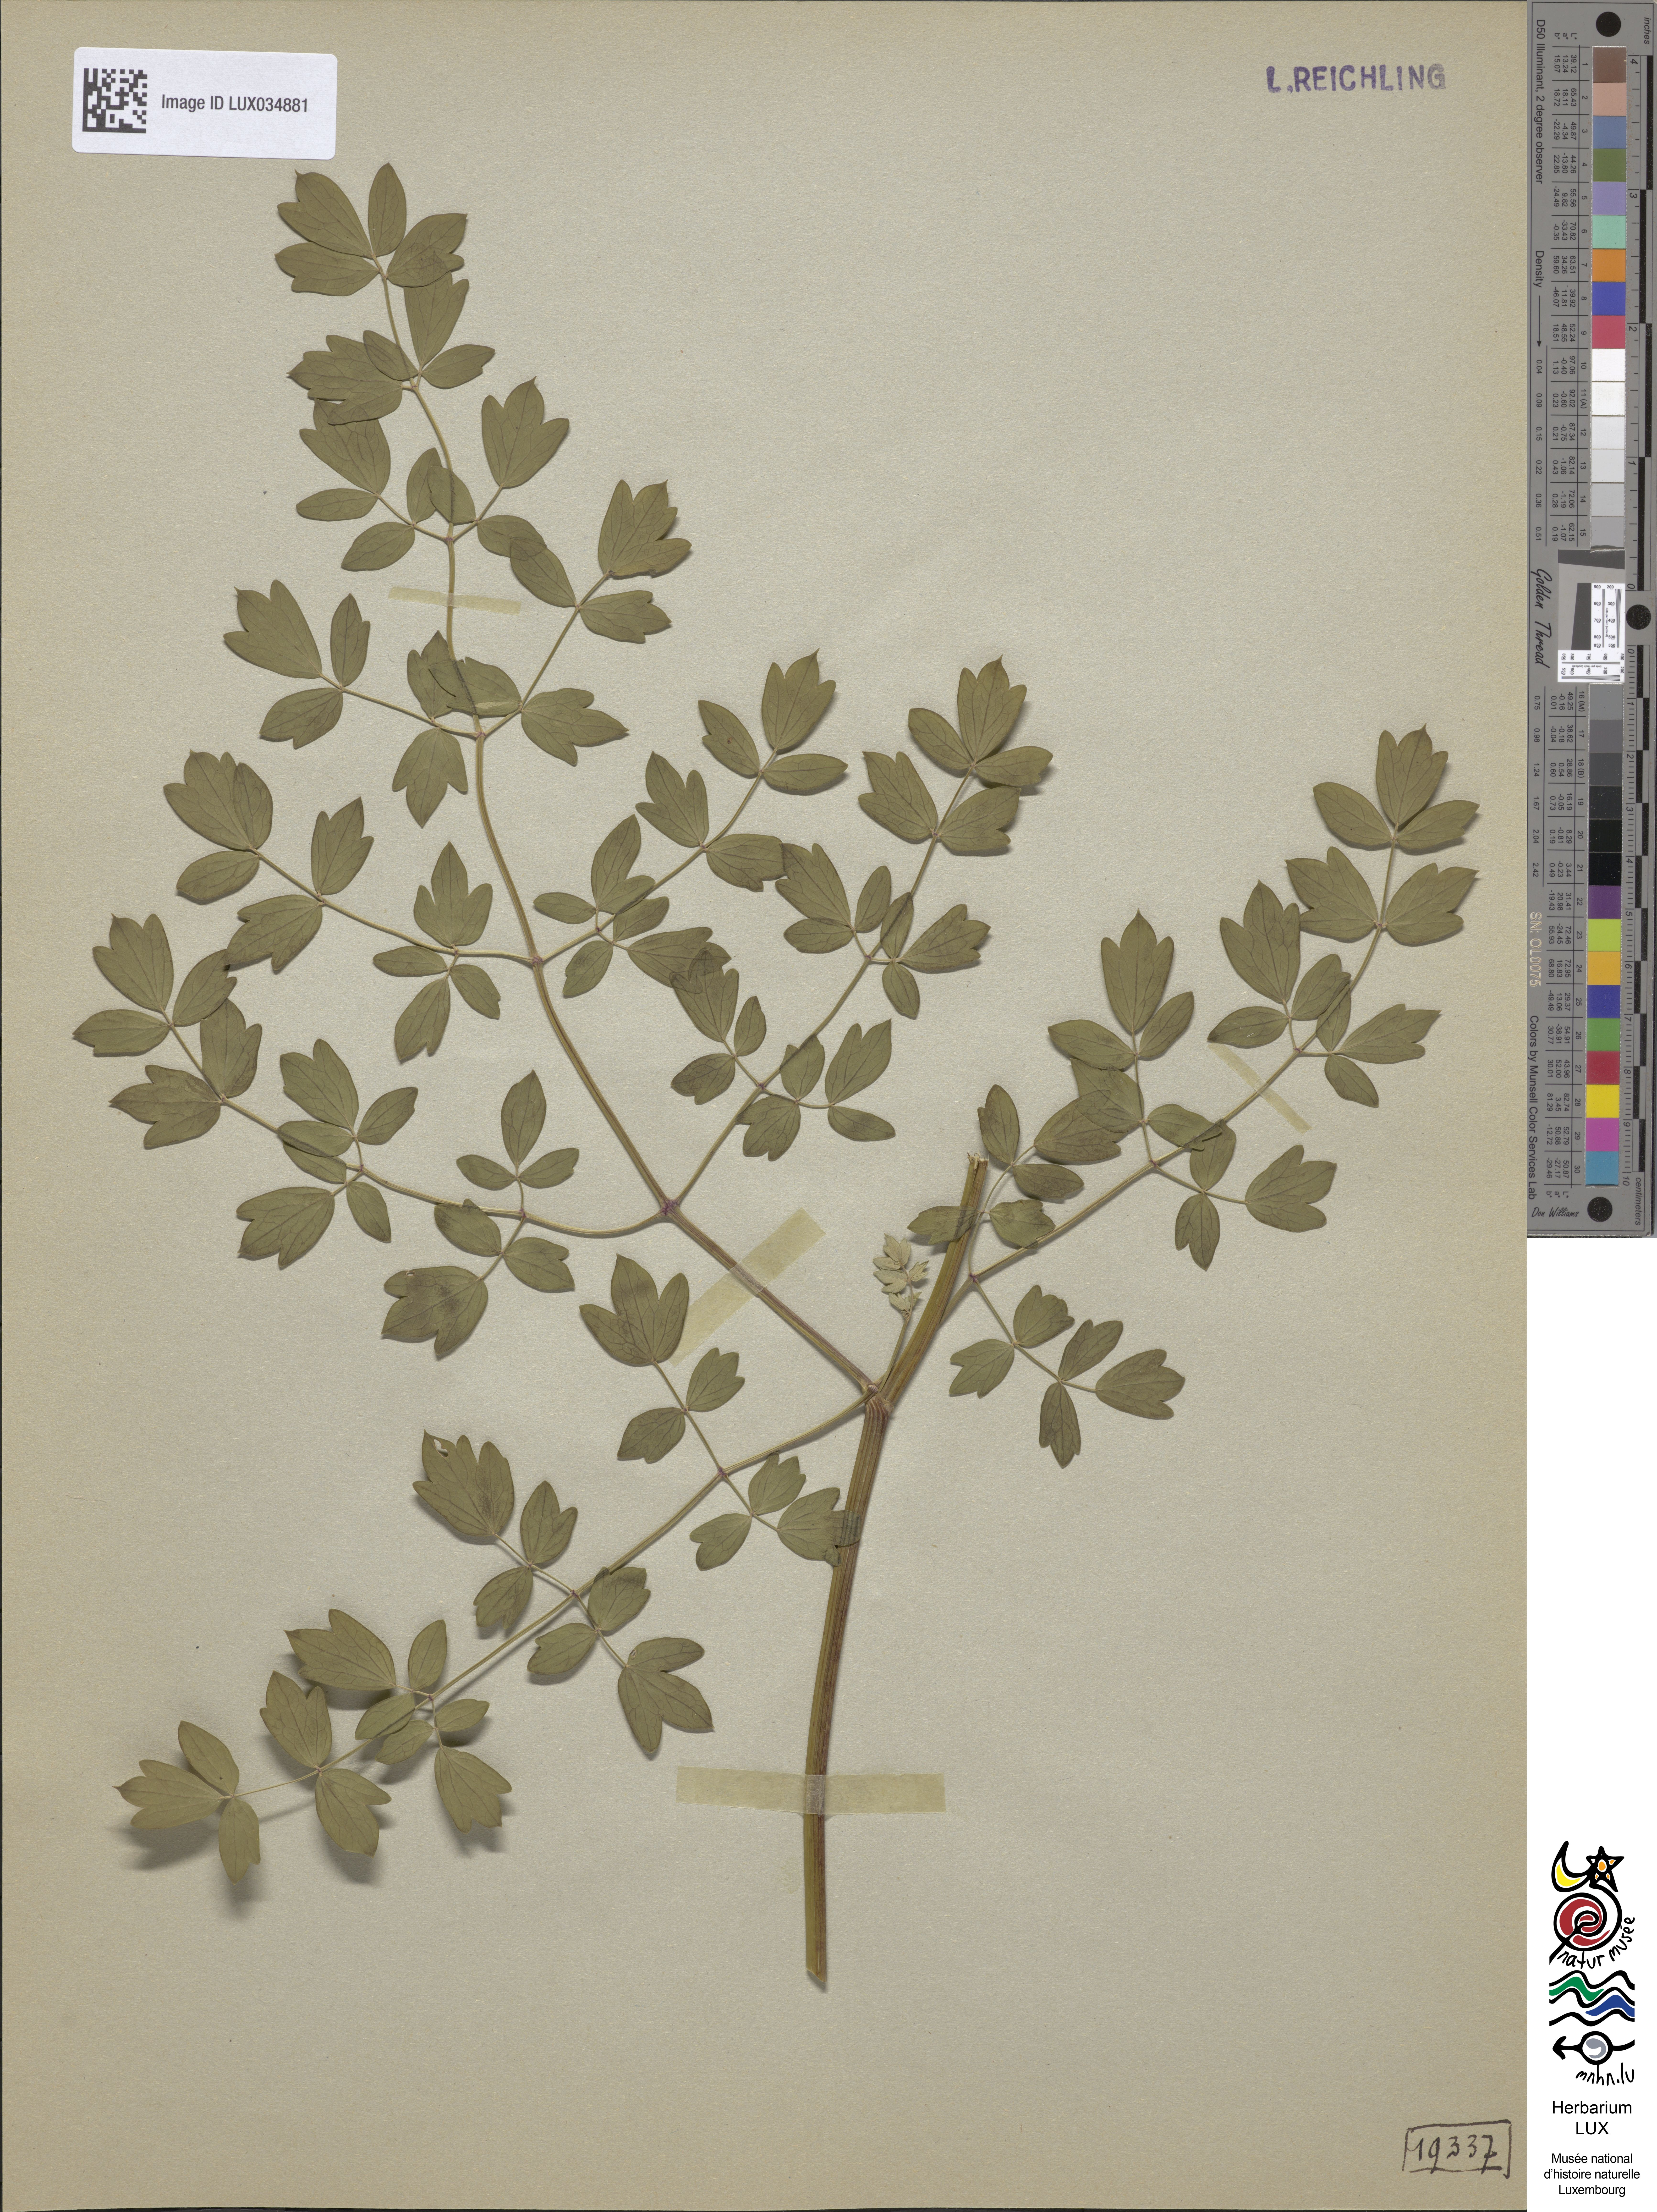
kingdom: Plantae
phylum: Tracheophyta
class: Magnoliopsida
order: Ranunculales
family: Ranunculaceae
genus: Thalictrum
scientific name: Thalictrum minus
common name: Lesser meadow-rue
